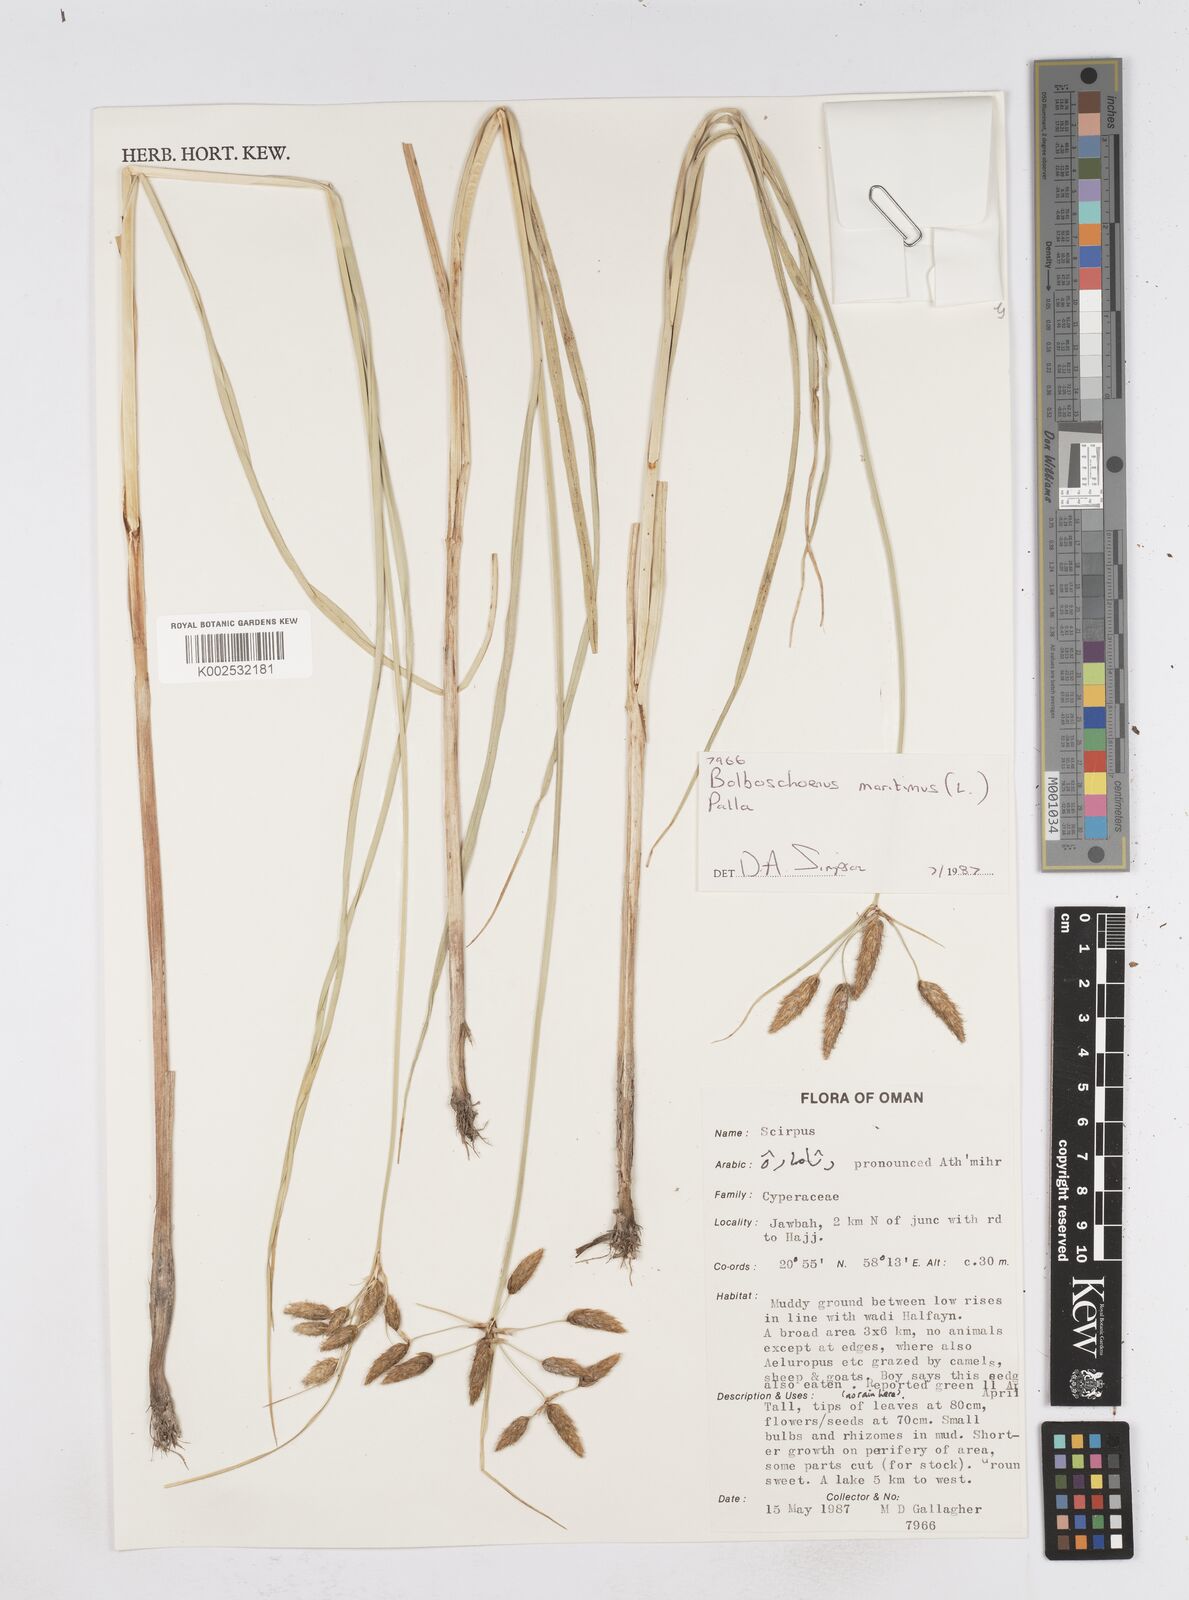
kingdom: Plantae
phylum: Tracheophyta
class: Liliopsida
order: Poales
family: Cyperaceae
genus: Bolboschoenus
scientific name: Bolboschoenus maritimus
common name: Sea club-rush
